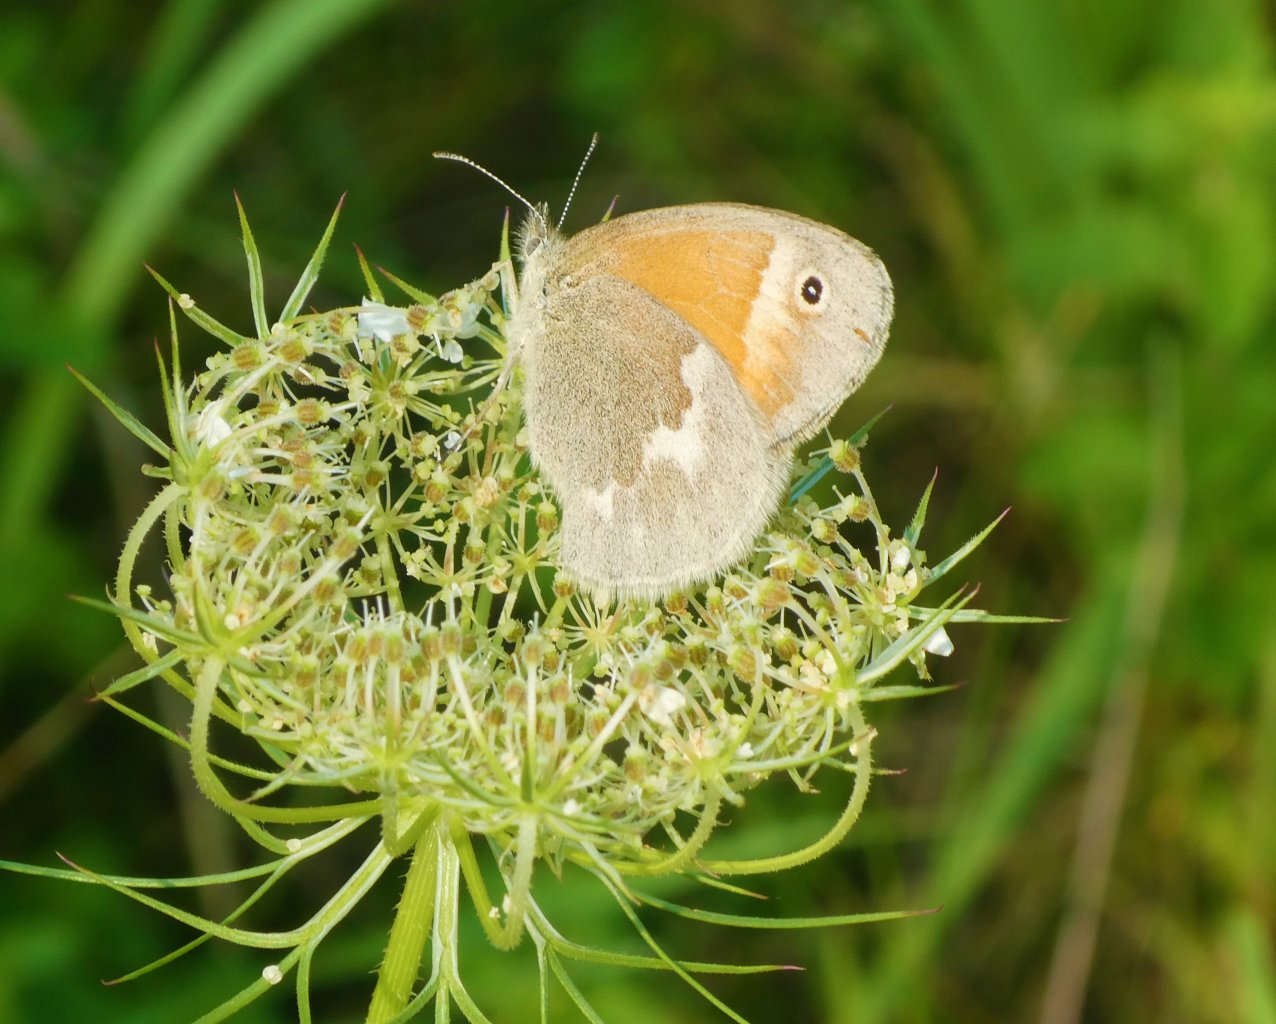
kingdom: Animalia
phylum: Arthropoda
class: Insecta
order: Lepidoptera
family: Nymphalidae
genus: Coenonympha
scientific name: Coenonympha tullia
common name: Large Heath
